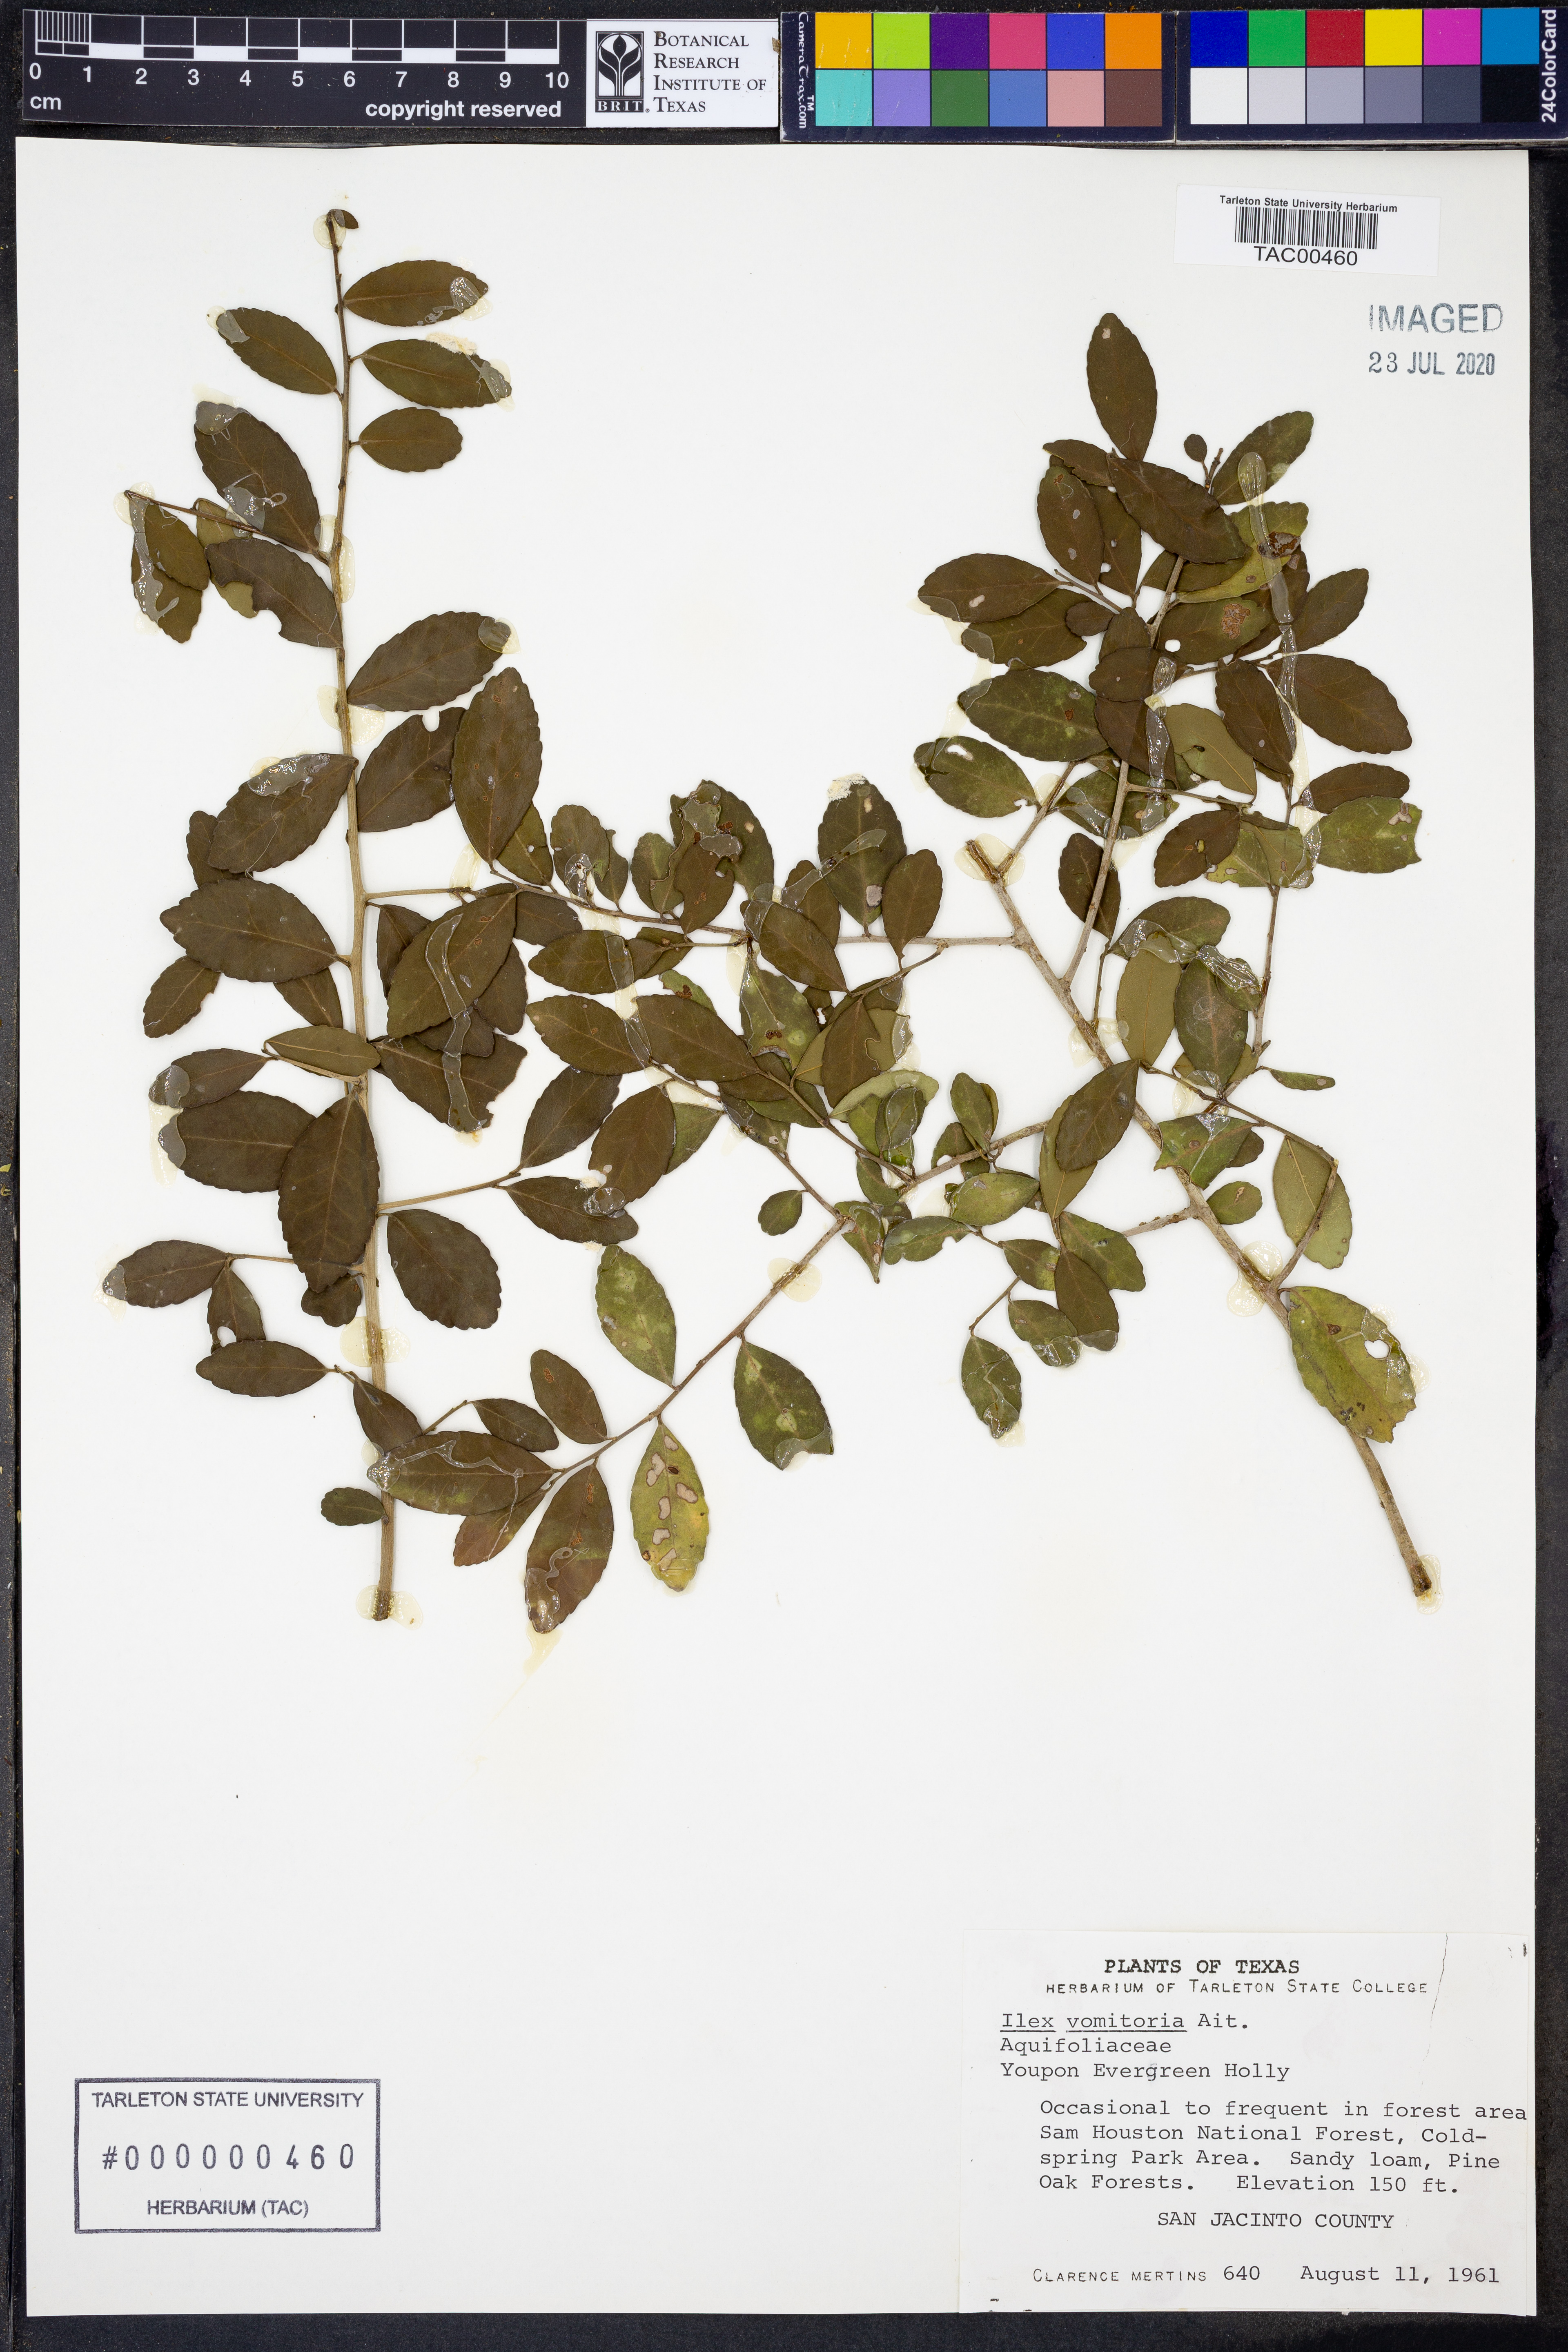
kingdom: Plantae
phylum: Tracheophyta
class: Magnoliopsida
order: Aquifoliales
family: Aquifoliaceae
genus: Ilex
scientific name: Ilex vomitoria
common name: Yaupon holly
